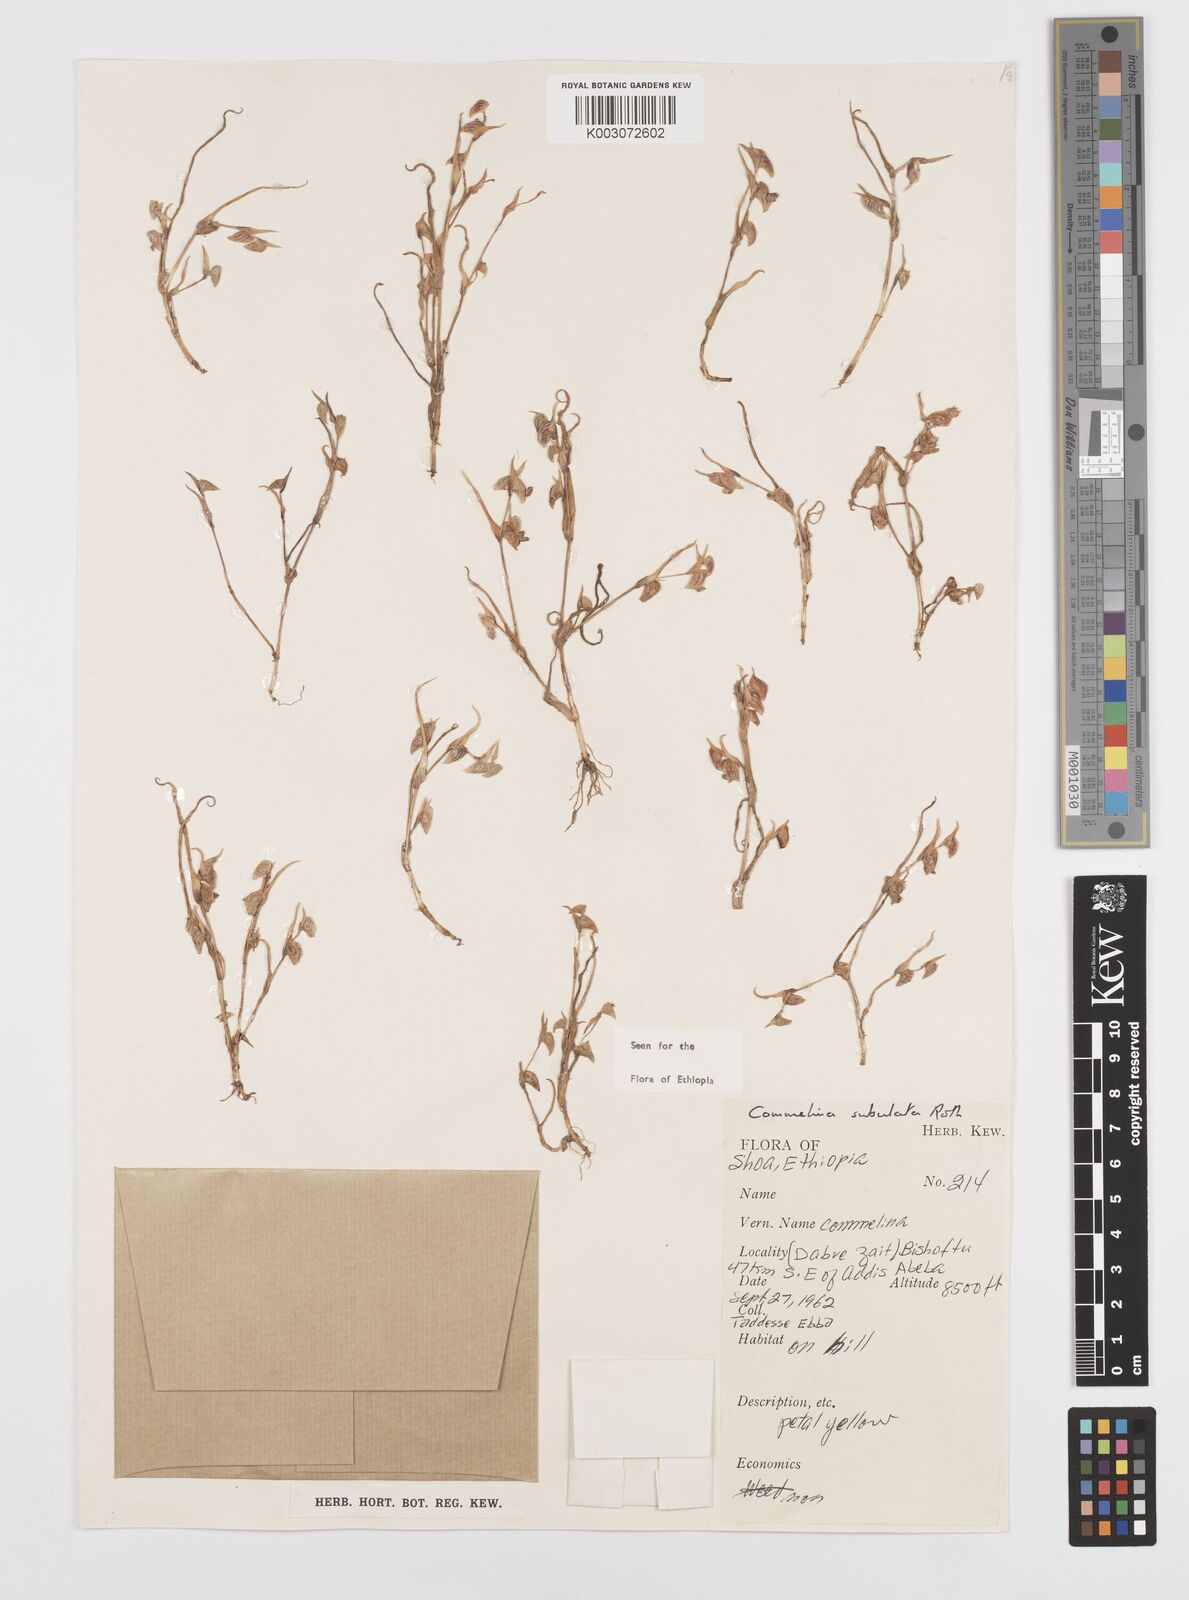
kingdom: Plantae
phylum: Tracheophyta
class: Liliopsida
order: Commelinales
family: Commelinaceae
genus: Commelina
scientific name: Commelina subulata
